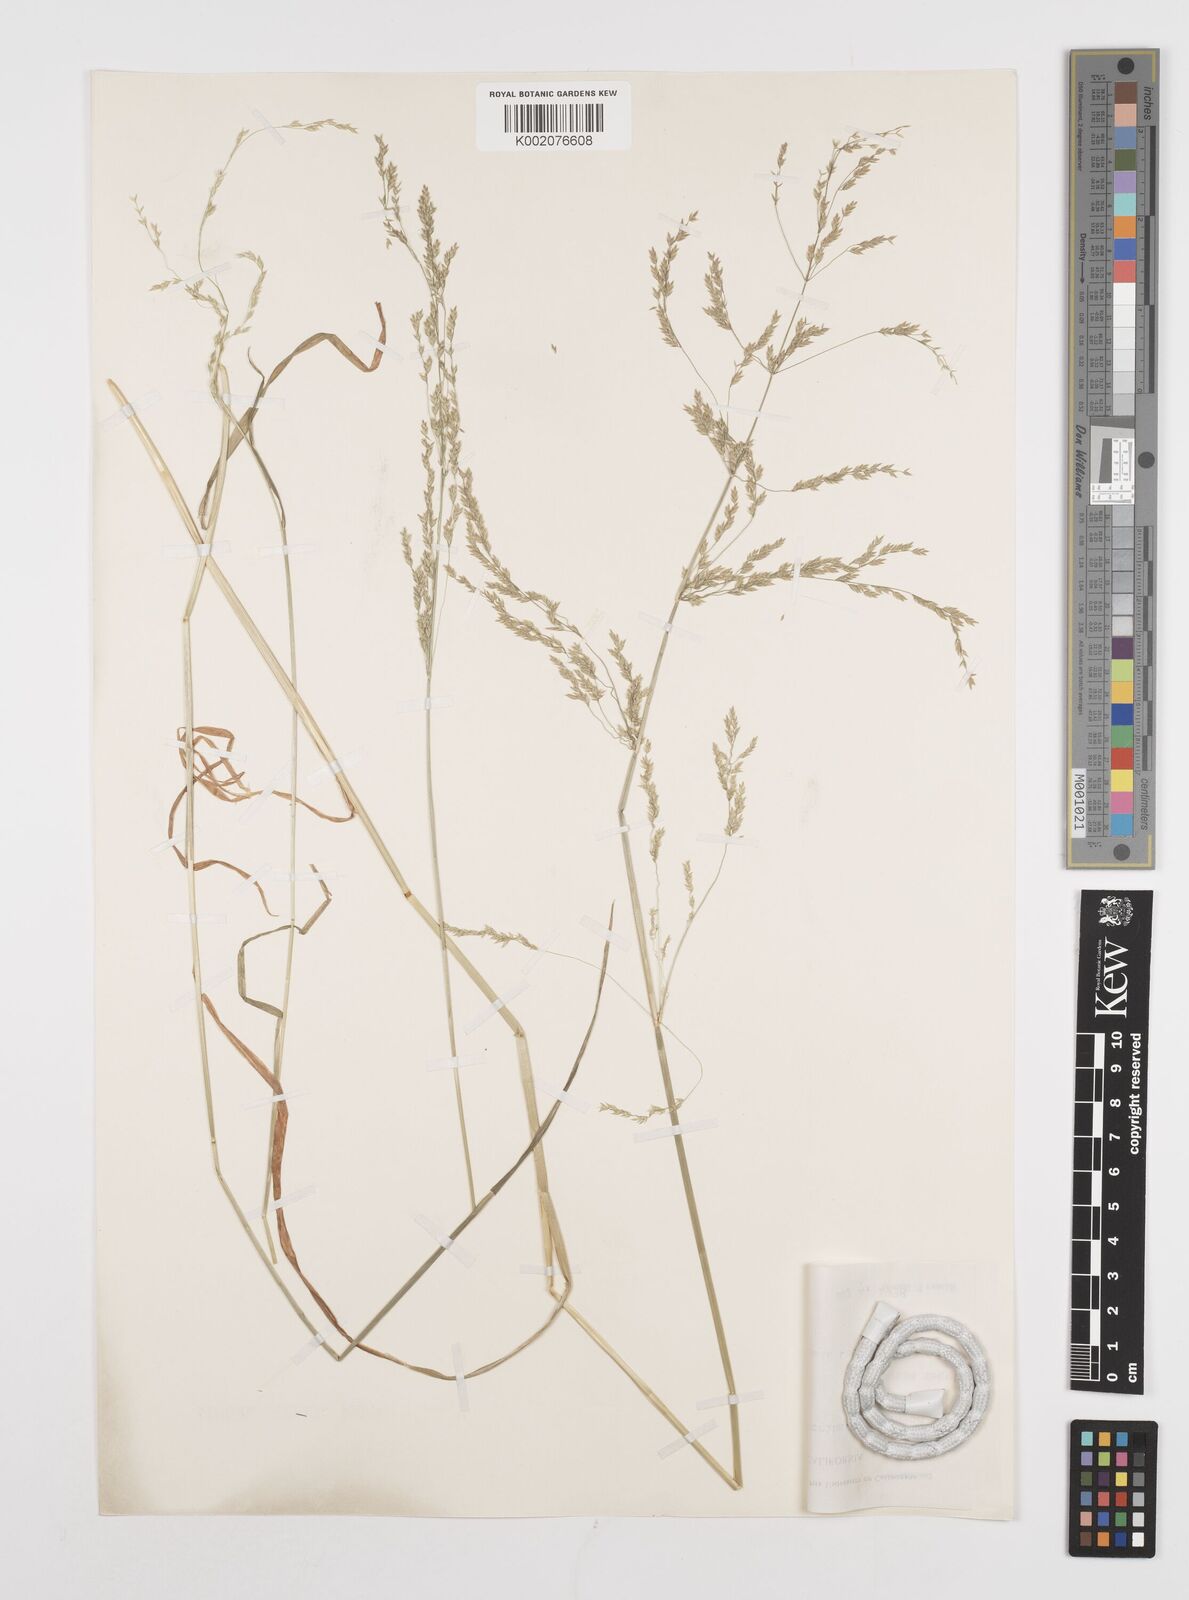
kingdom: Plantae
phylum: Tracheophyta
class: Liliopsida
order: Poales
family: Poaceae
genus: Poa
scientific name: Poa howellii
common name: Howell's bluegrass
